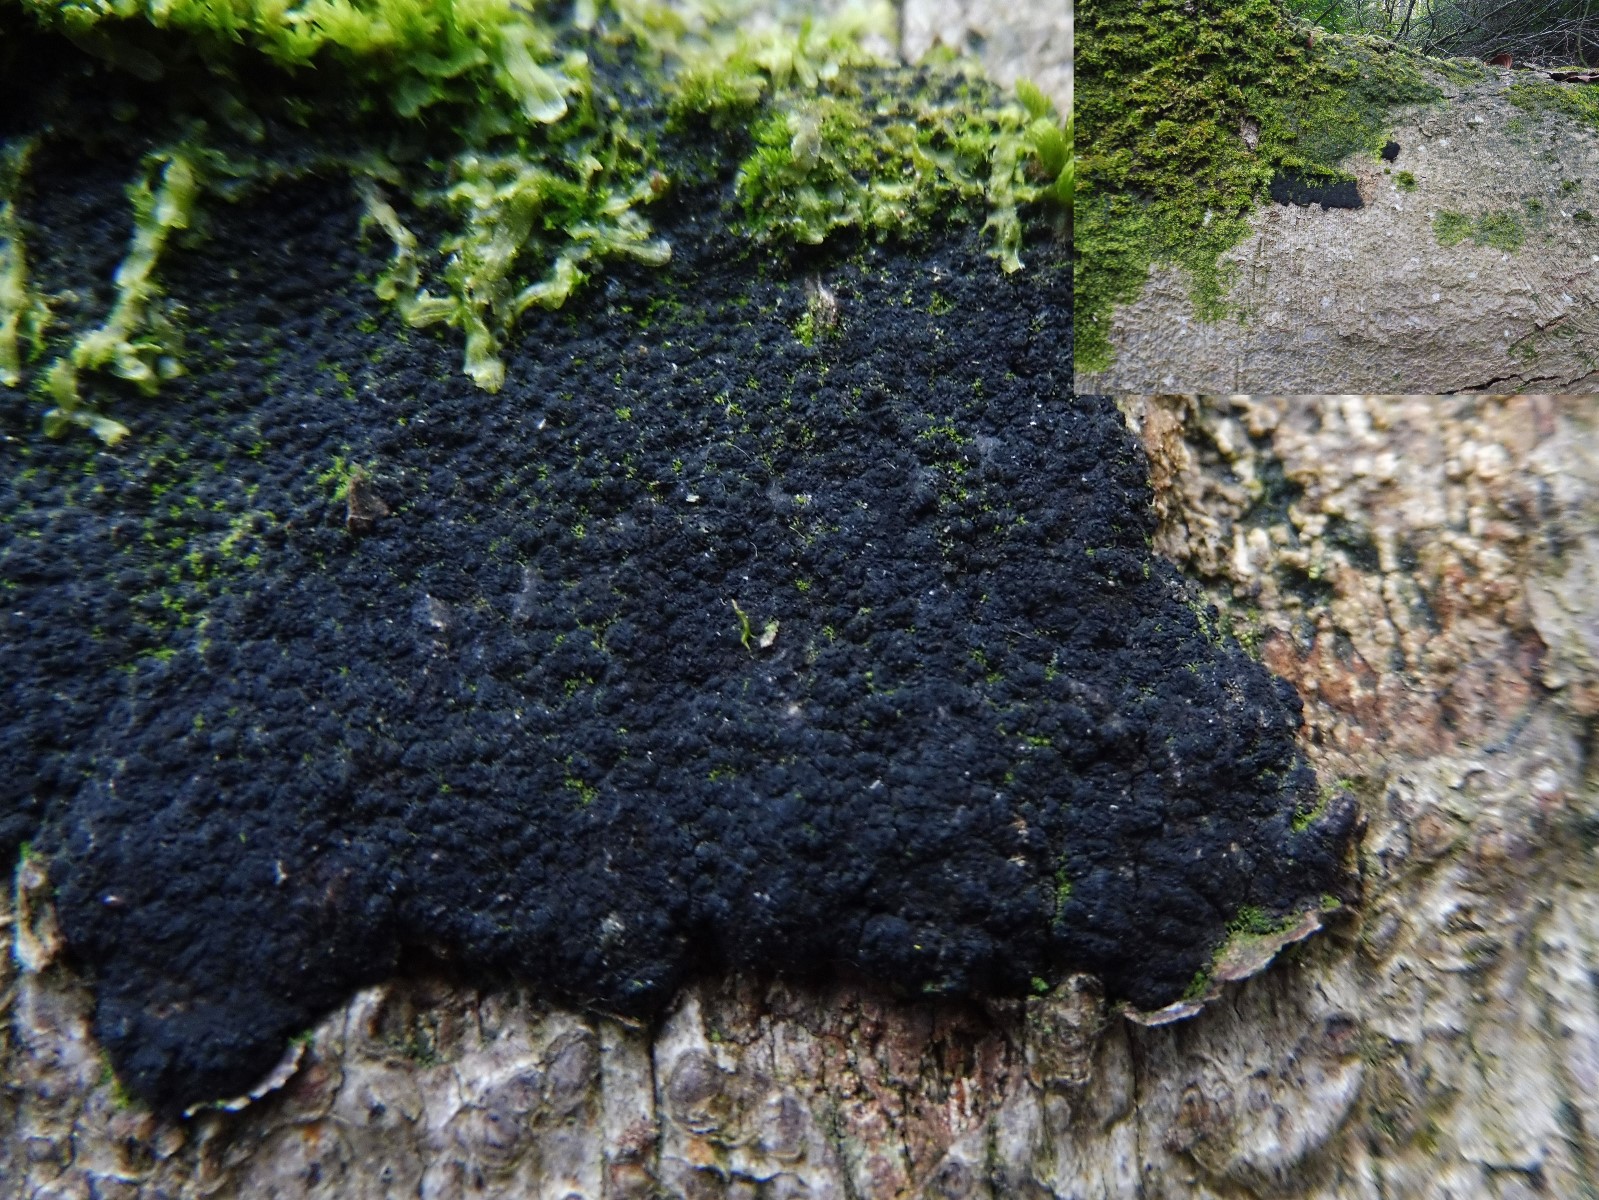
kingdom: Fungi
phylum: Ascomycota
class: Sordariomycetes
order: Xylariales
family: Diatrypaceae
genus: Eutypa
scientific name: Eutypa spinosa
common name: grov kulskorpe
